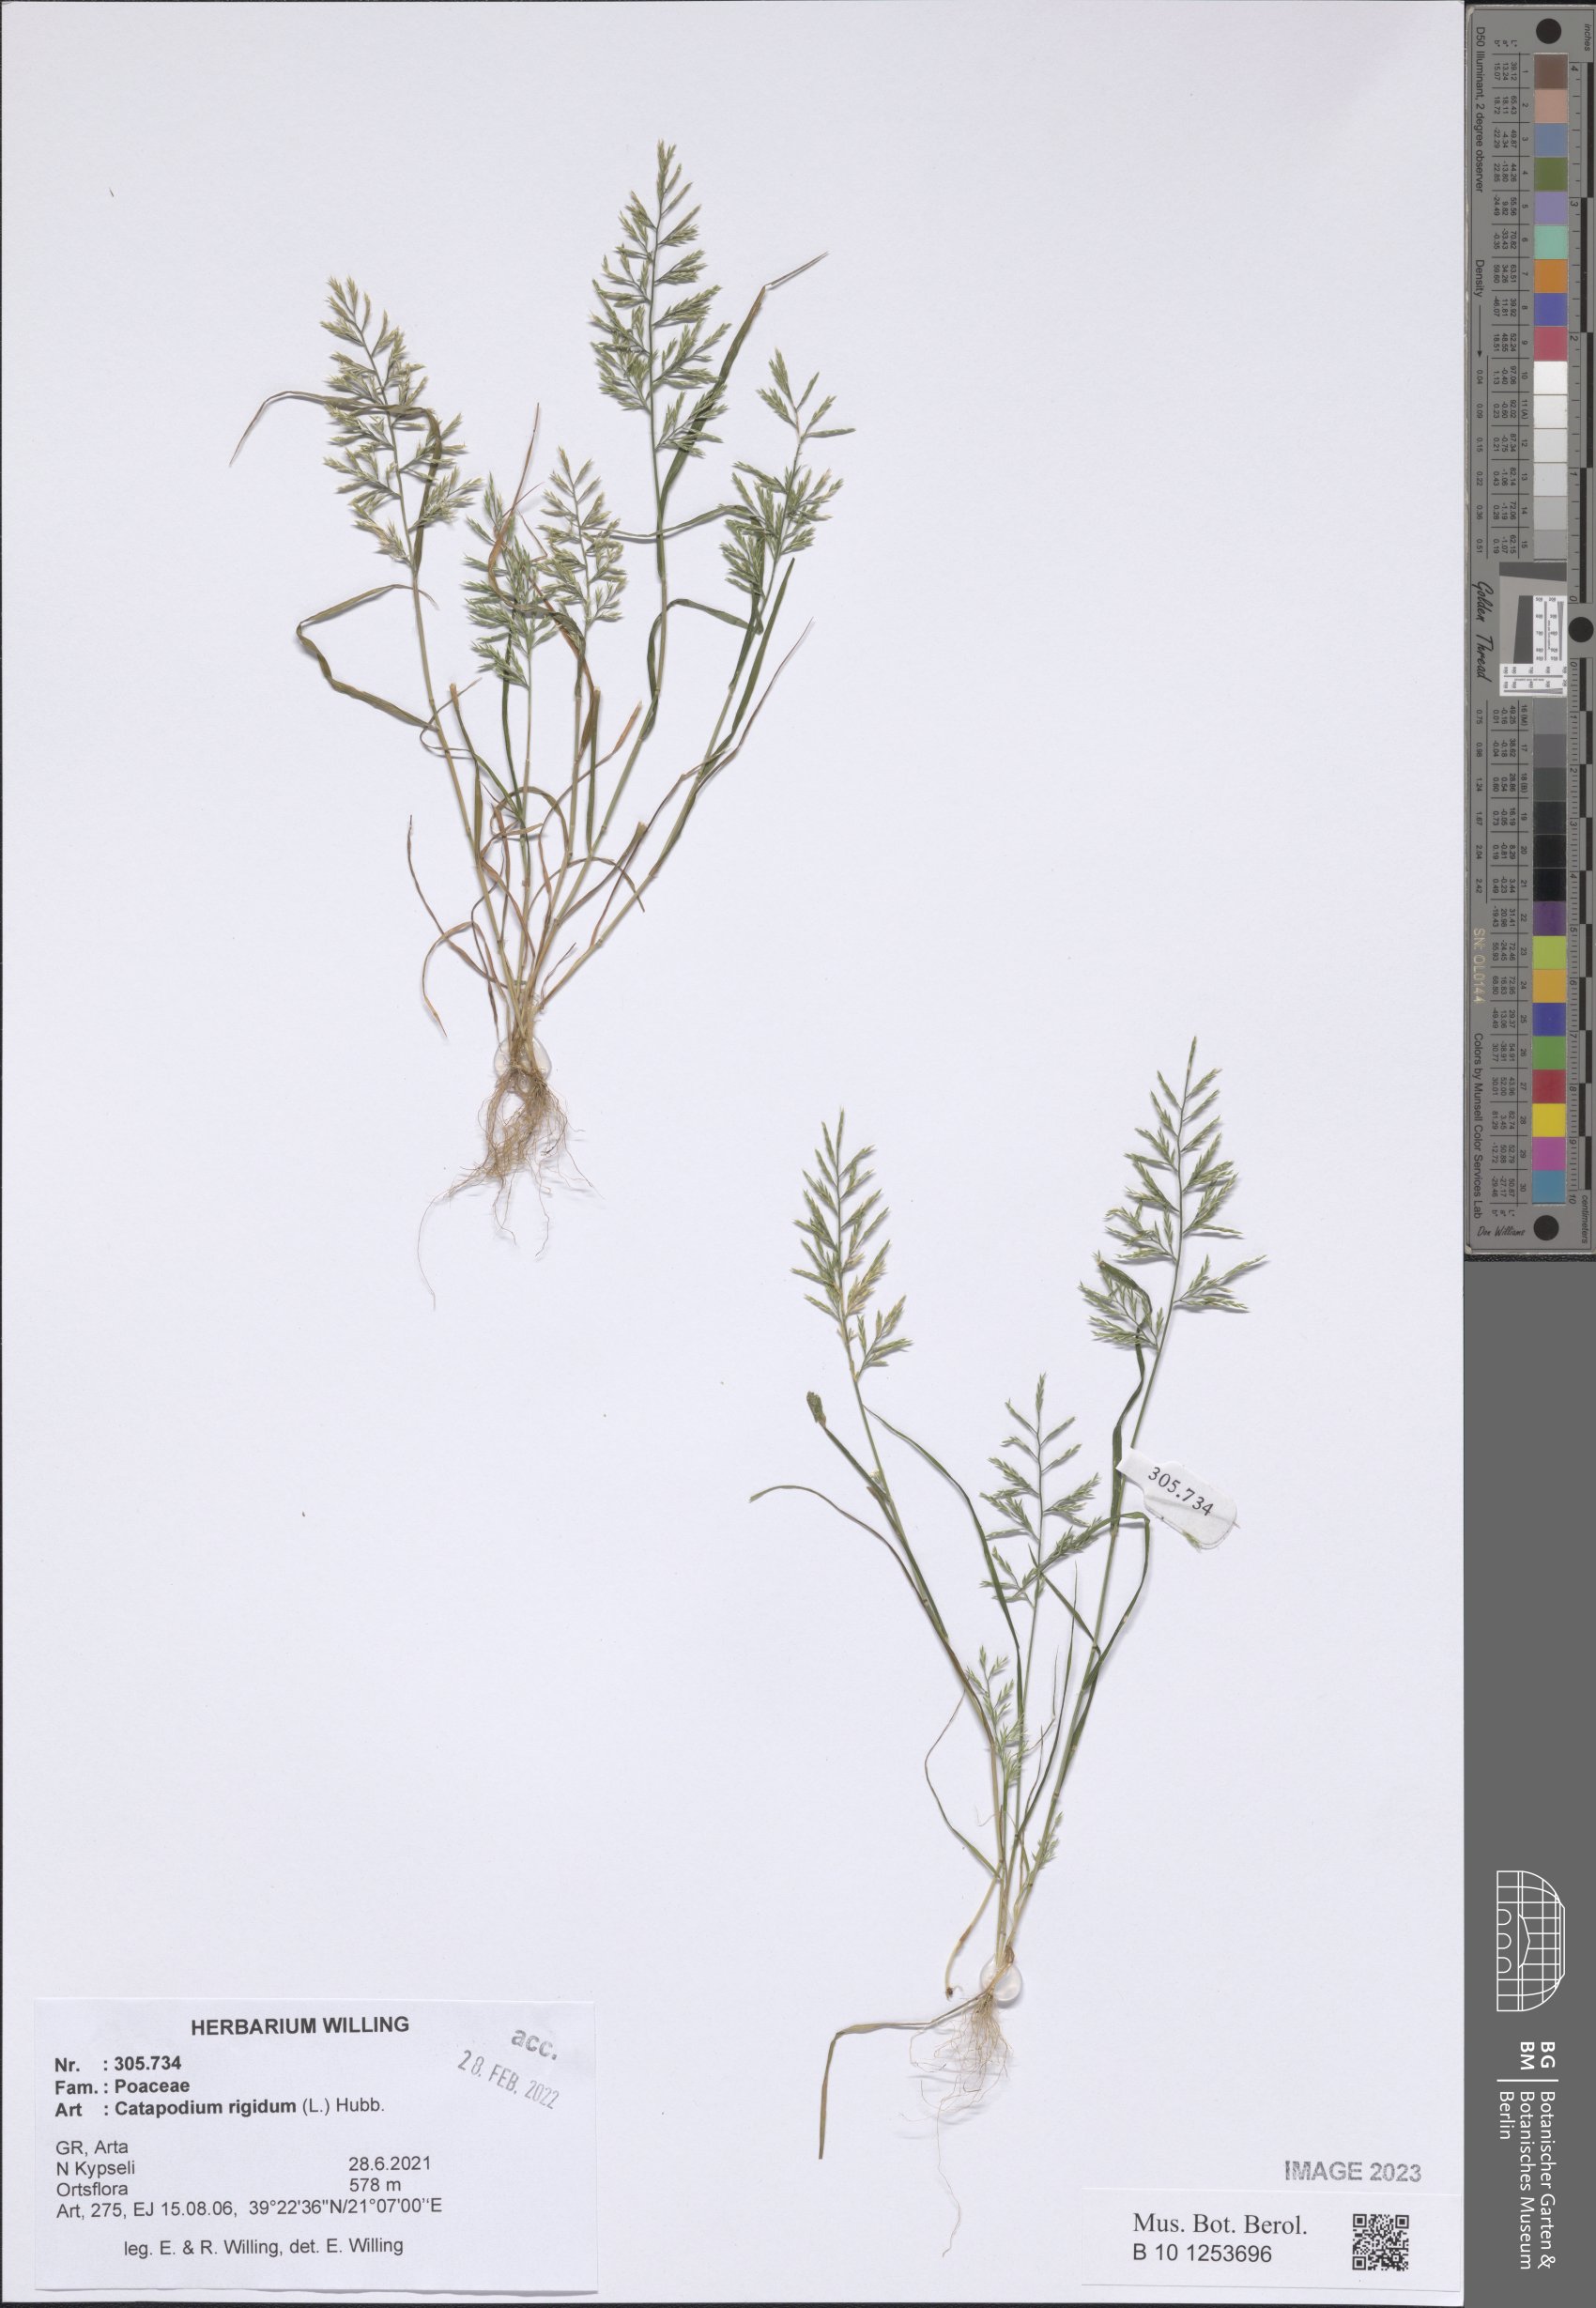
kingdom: Plantae
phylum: Tracheophyta
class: Liliopsida
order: Poales
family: Poaceae
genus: Catapodium
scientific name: Catapodium rigidum
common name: Fern-grass
